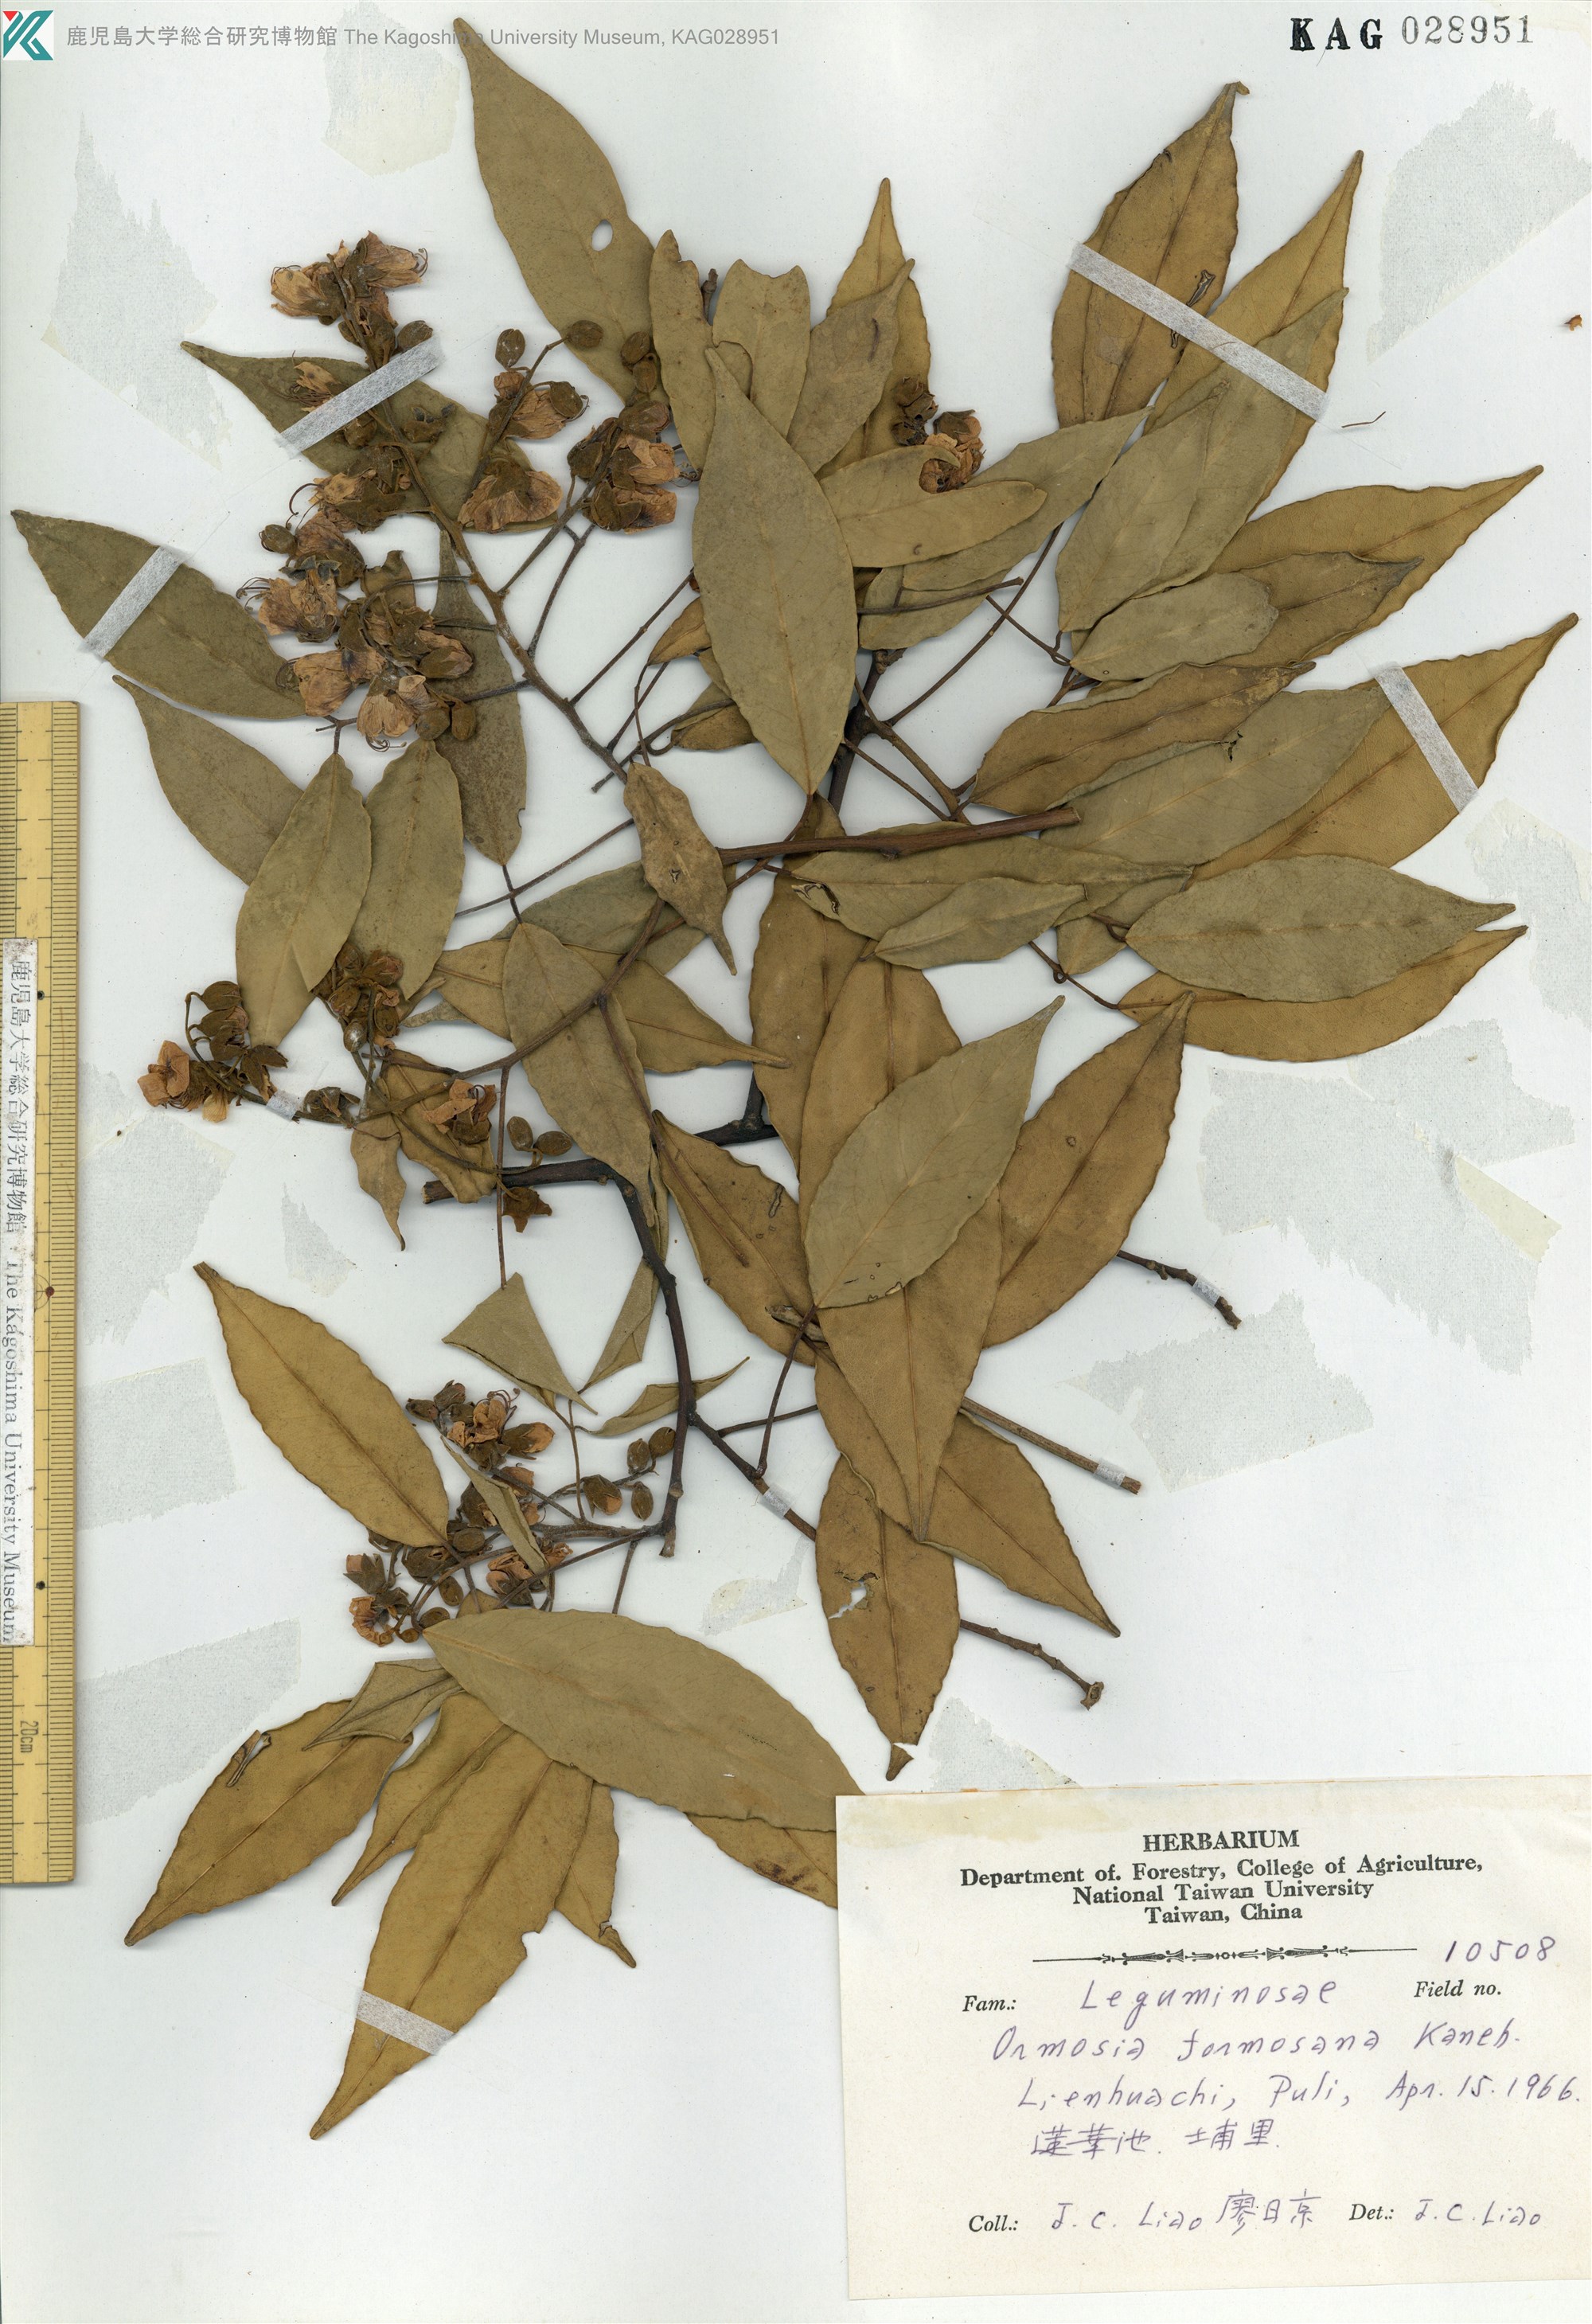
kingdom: Plantae
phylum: Tracheophyta
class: Magnoliopsida
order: Fabales
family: Fabaceae
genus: Ormosia
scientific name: Ormosia formosana
